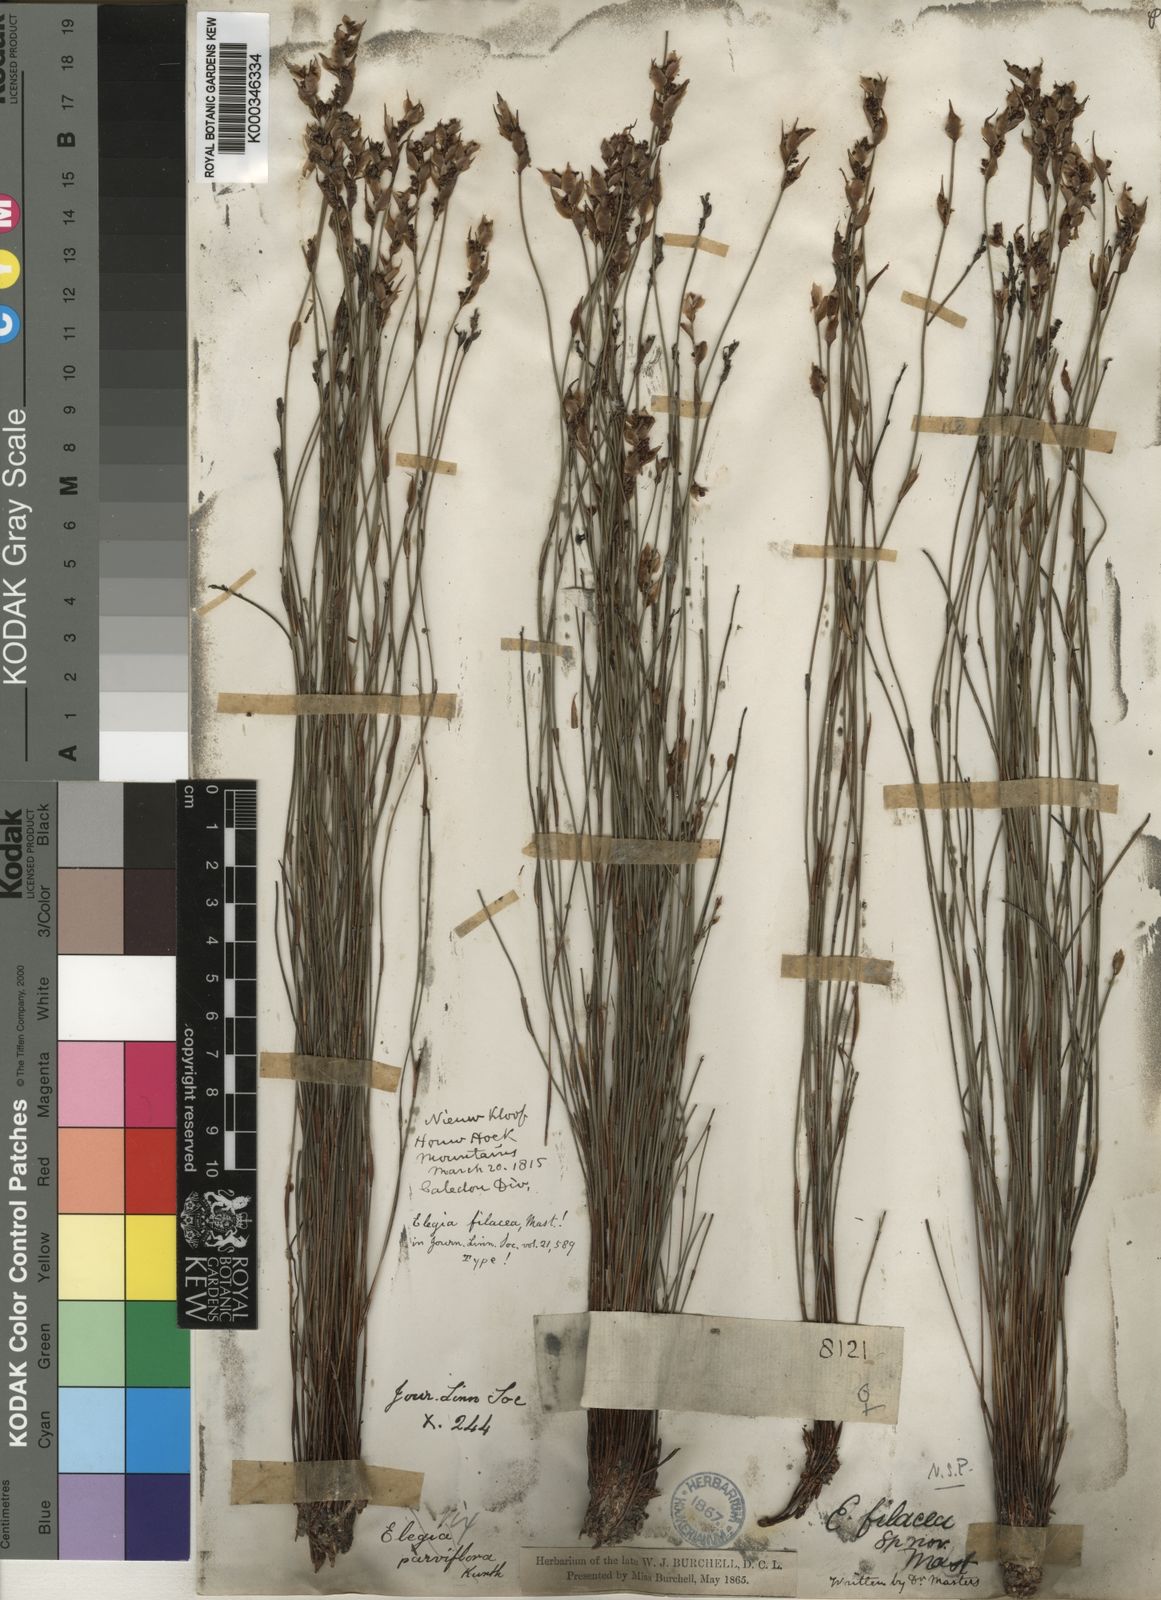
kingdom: Plantae
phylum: Tracheophyta
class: Liliopsida
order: Poales
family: Restionaceae
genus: Elegia
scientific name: Elegia filacea
